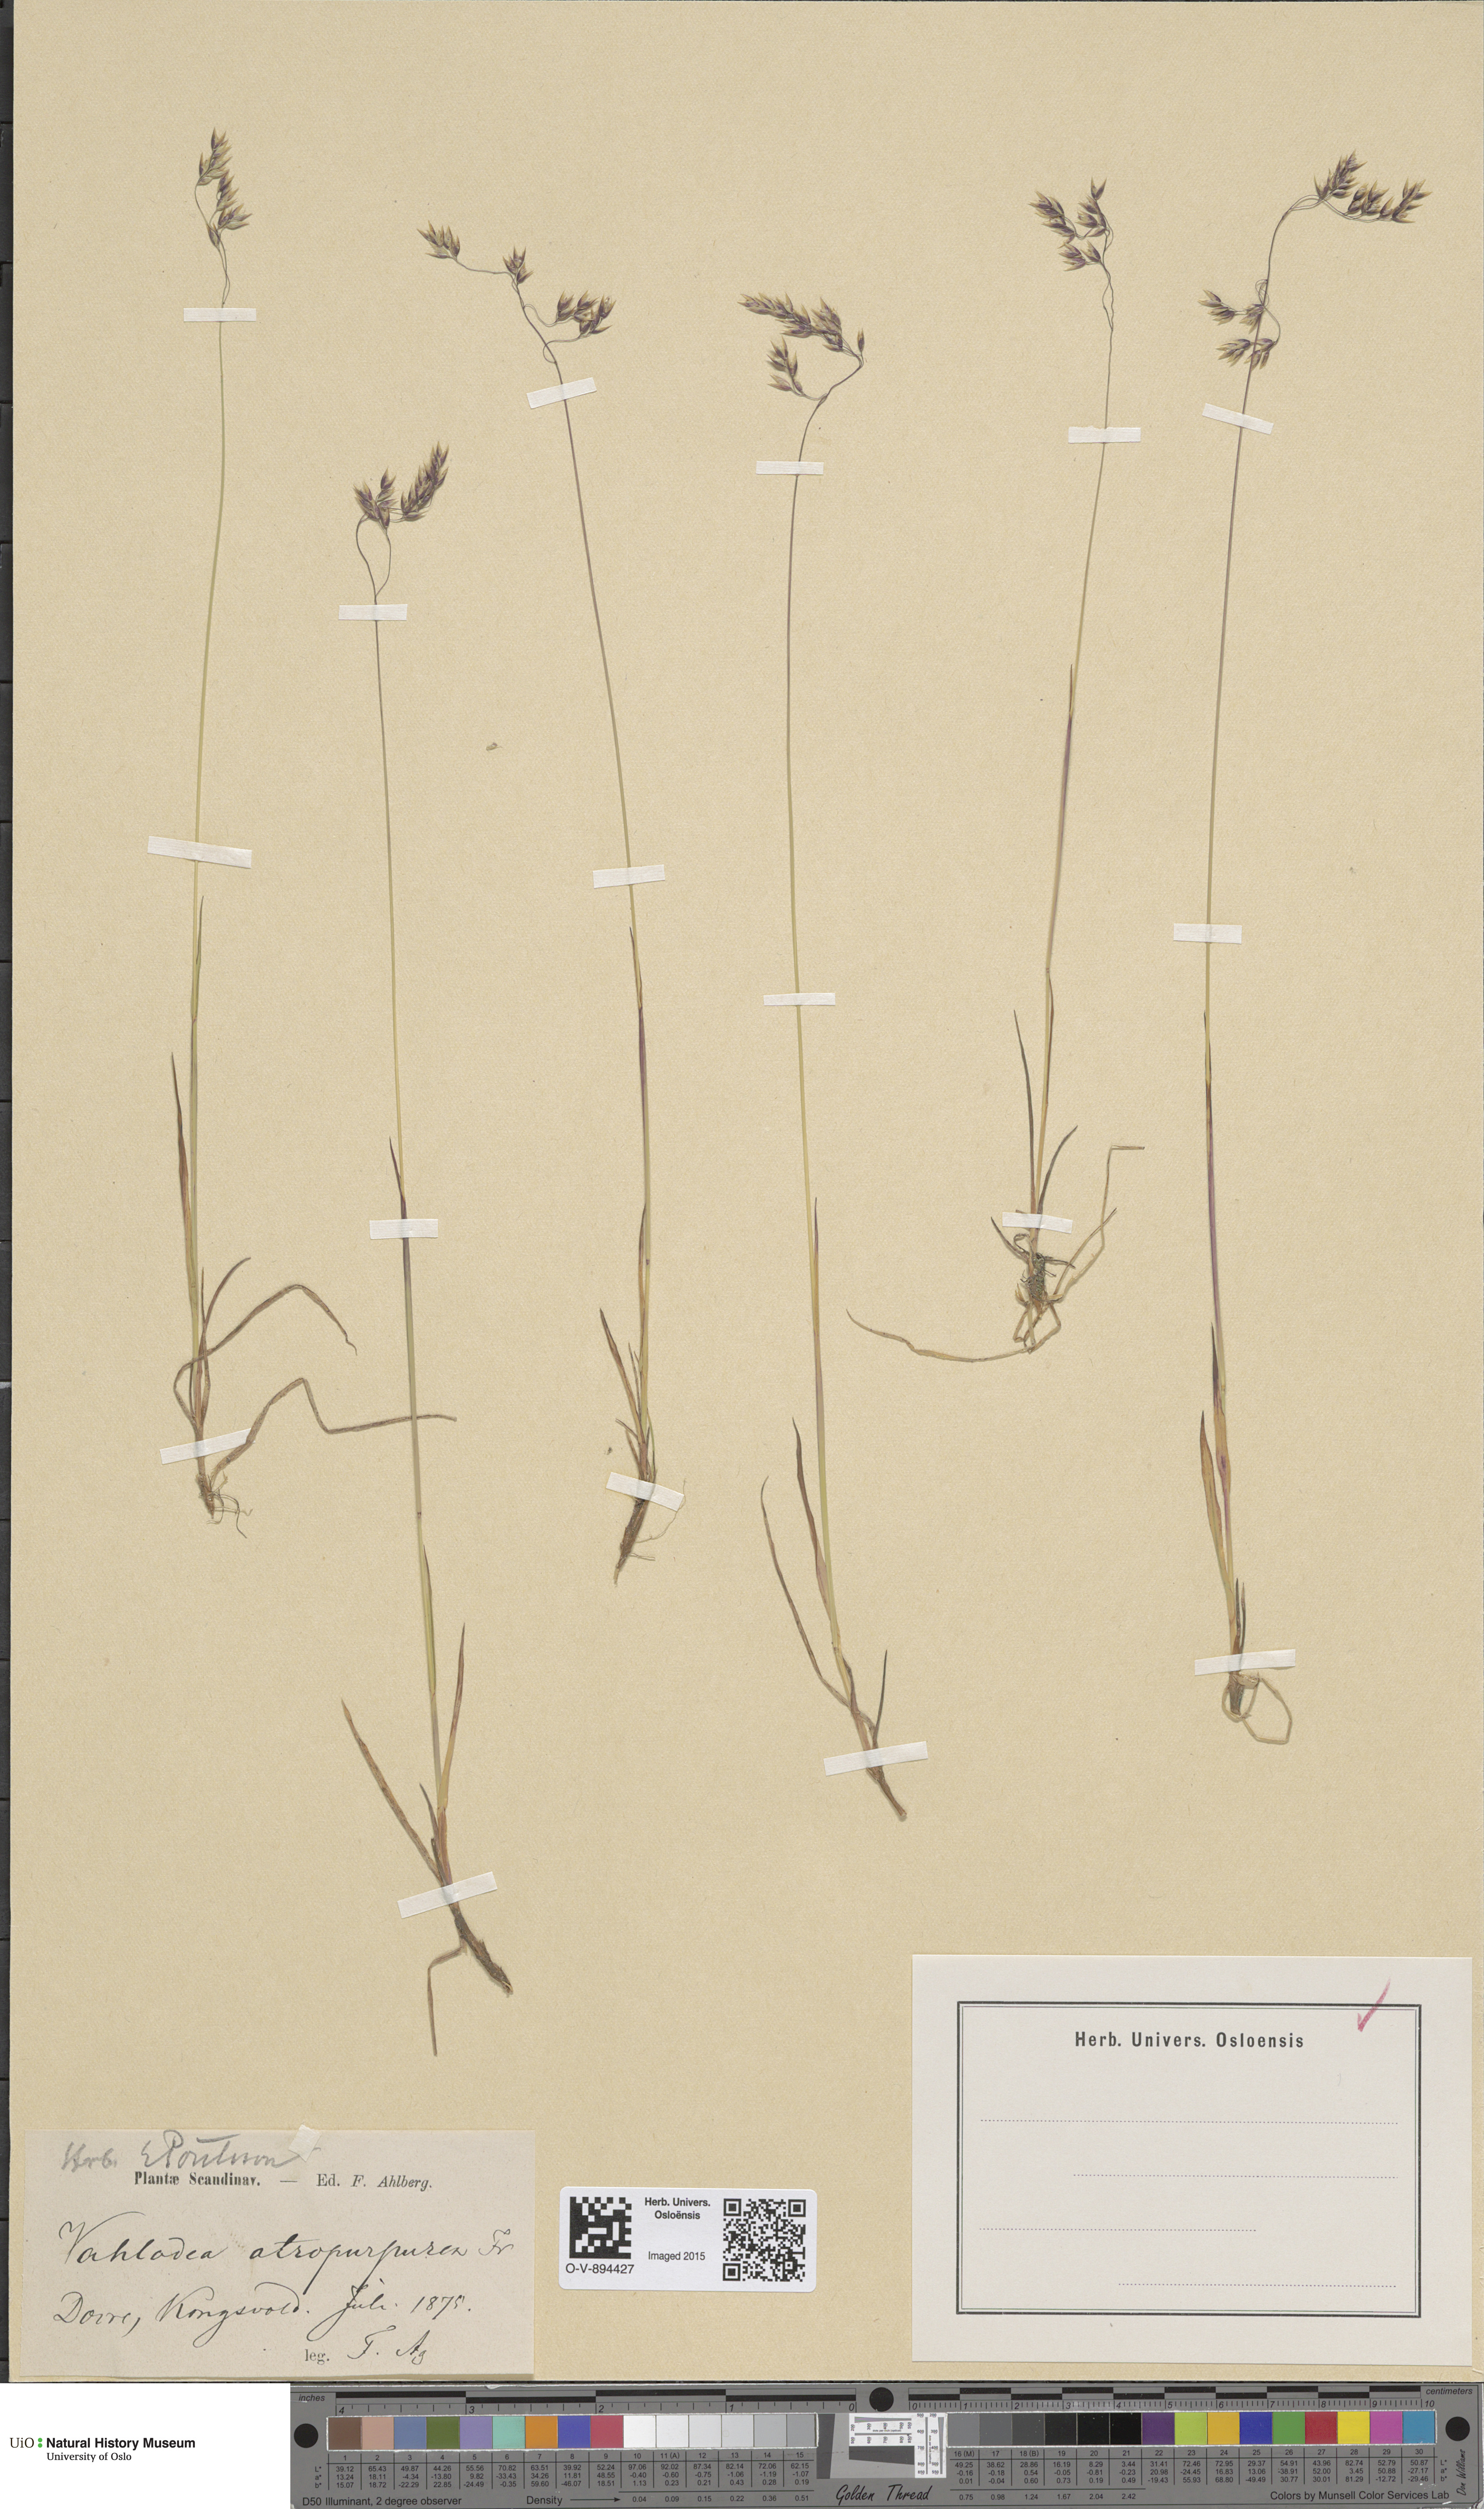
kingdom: Plantae
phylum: Tracheophyta
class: Liliopsida
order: Poales
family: Poaceae
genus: Vahlodea
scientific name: Vahlodea atropurpurea
